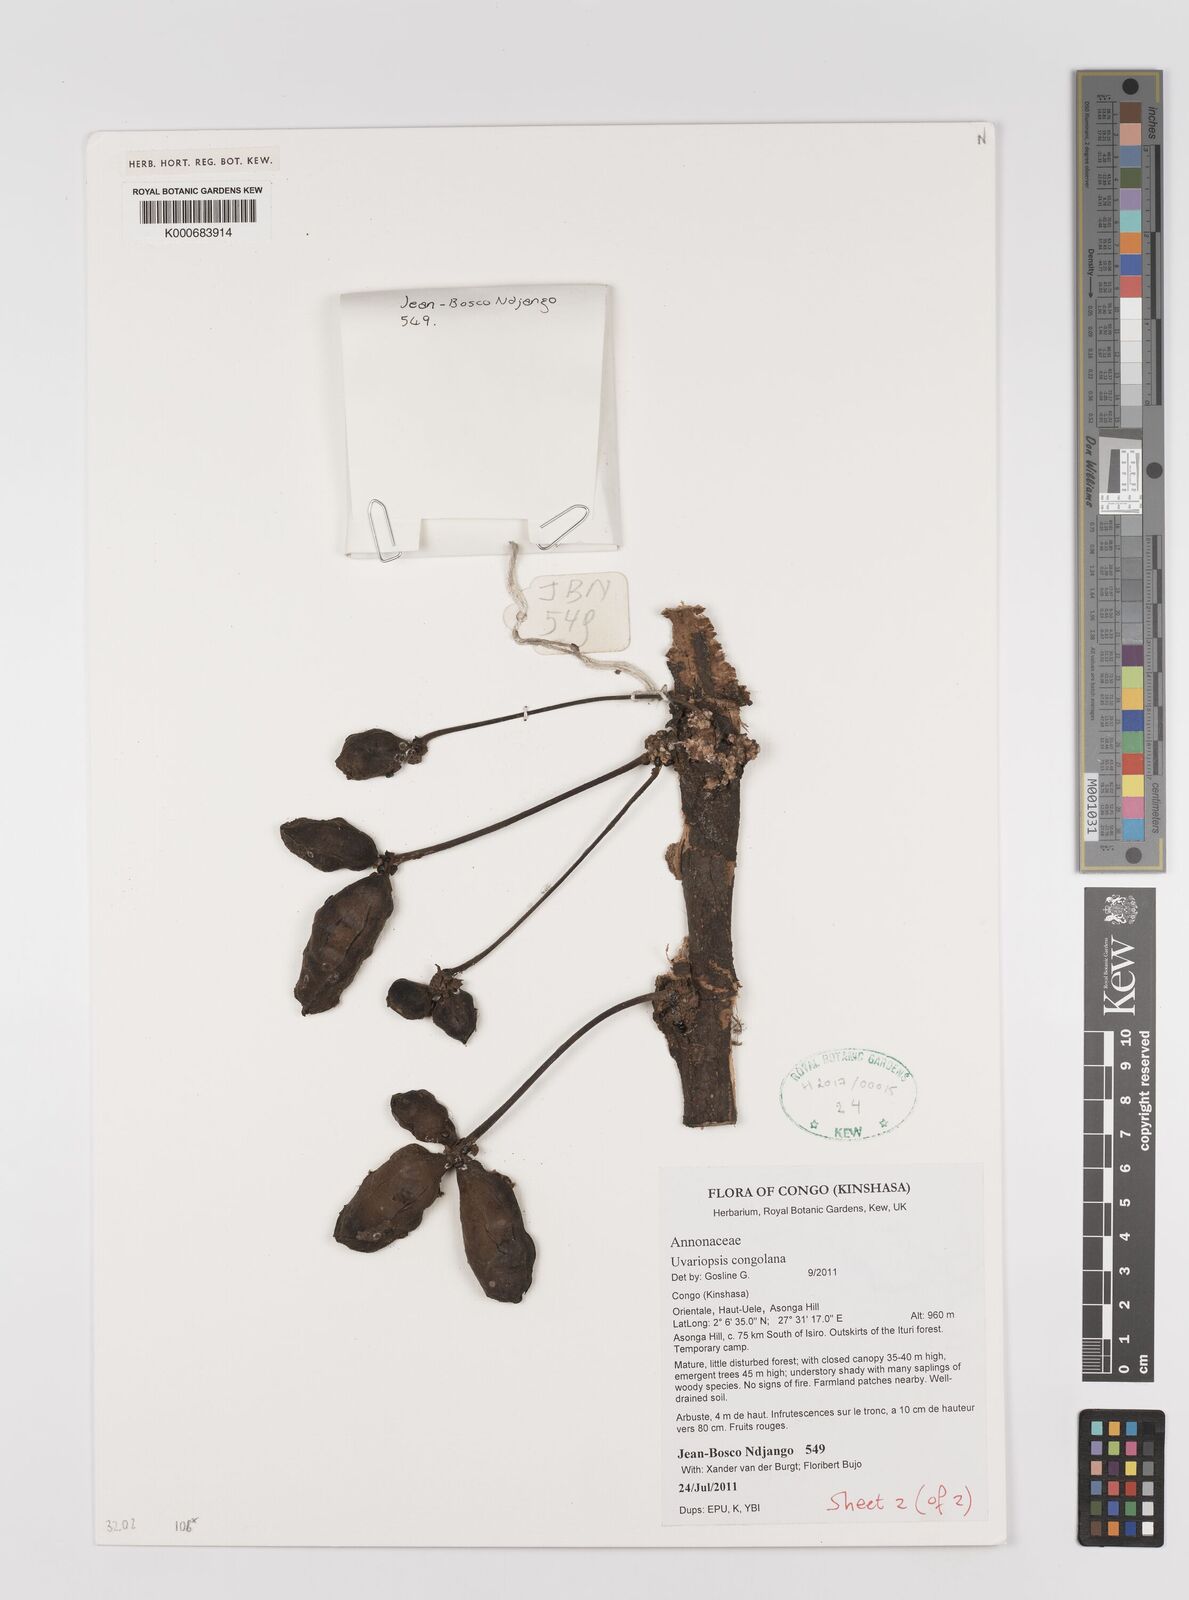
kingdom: Plantae
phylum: Tracheophyta
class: Magnoliopsida
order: Magnoliales
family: Annonaceae
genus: Uvariopsis
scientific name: Uvariopsis congolana
